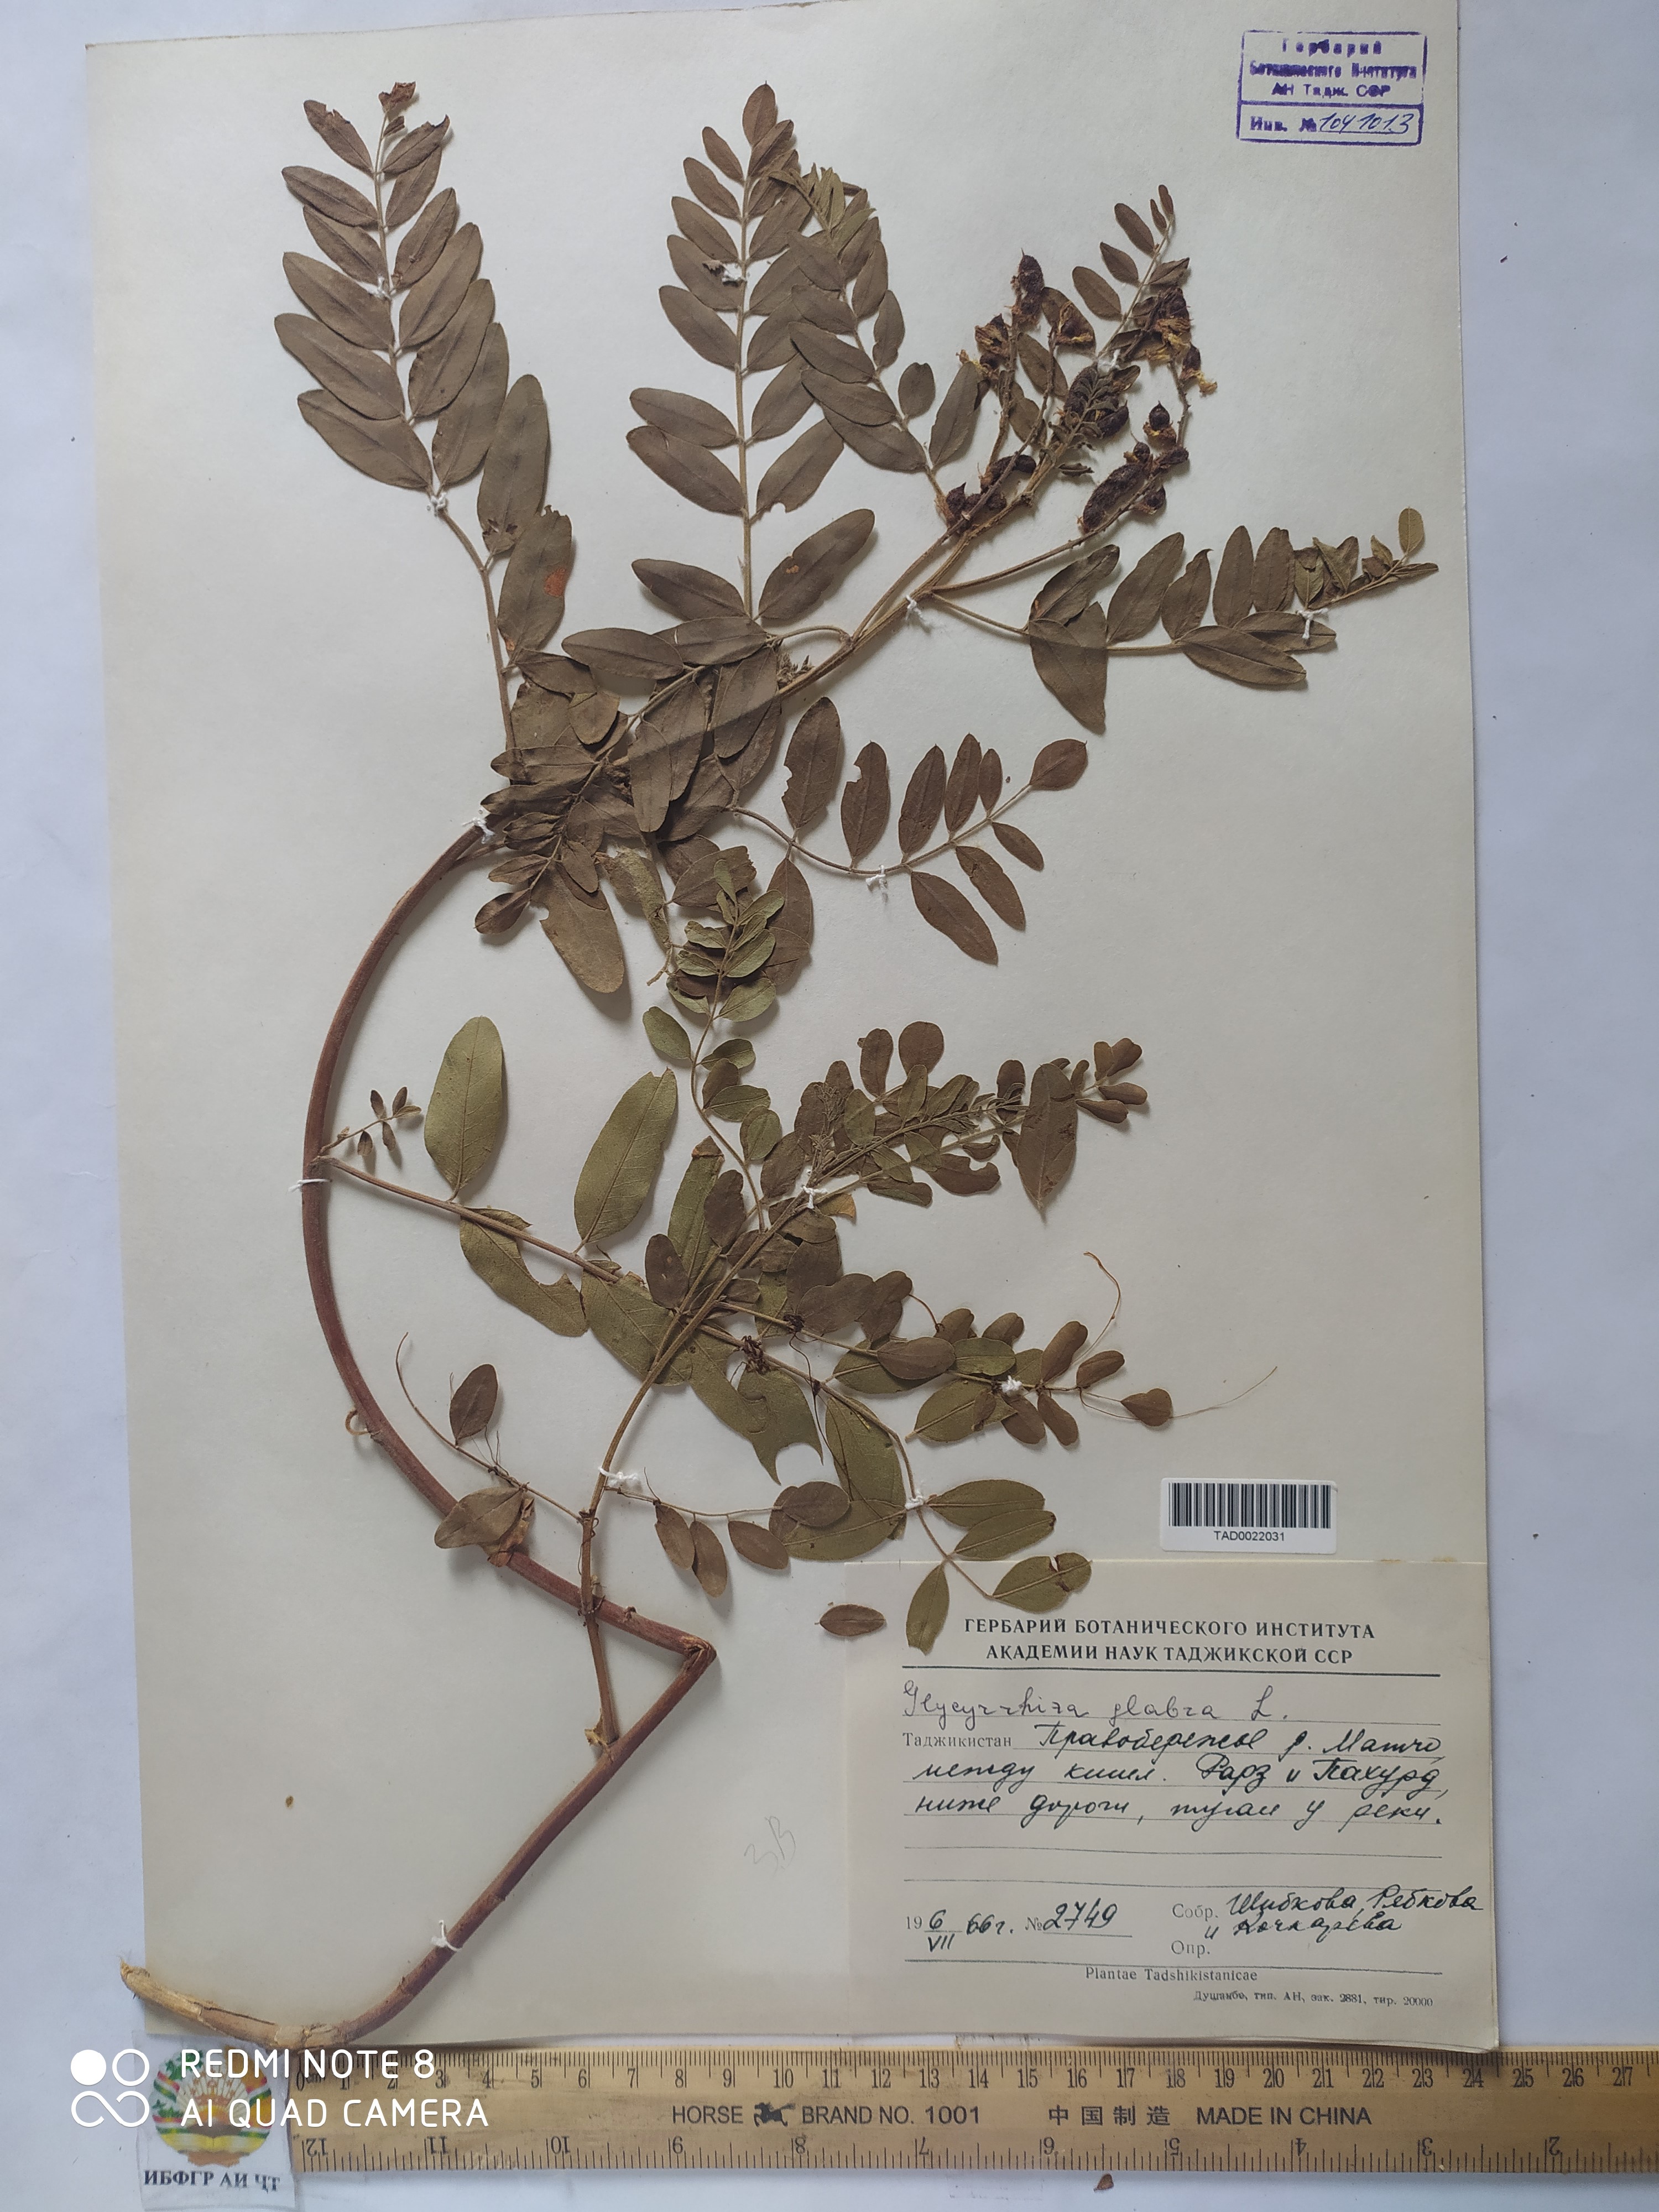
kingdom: Plantae
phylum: Tracheophyta
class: Magnoliopsida
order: Fabales
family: Fabaceae
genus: Glycyrrhiza
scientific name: Glycyrrhiza glabra
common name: Liquorice
